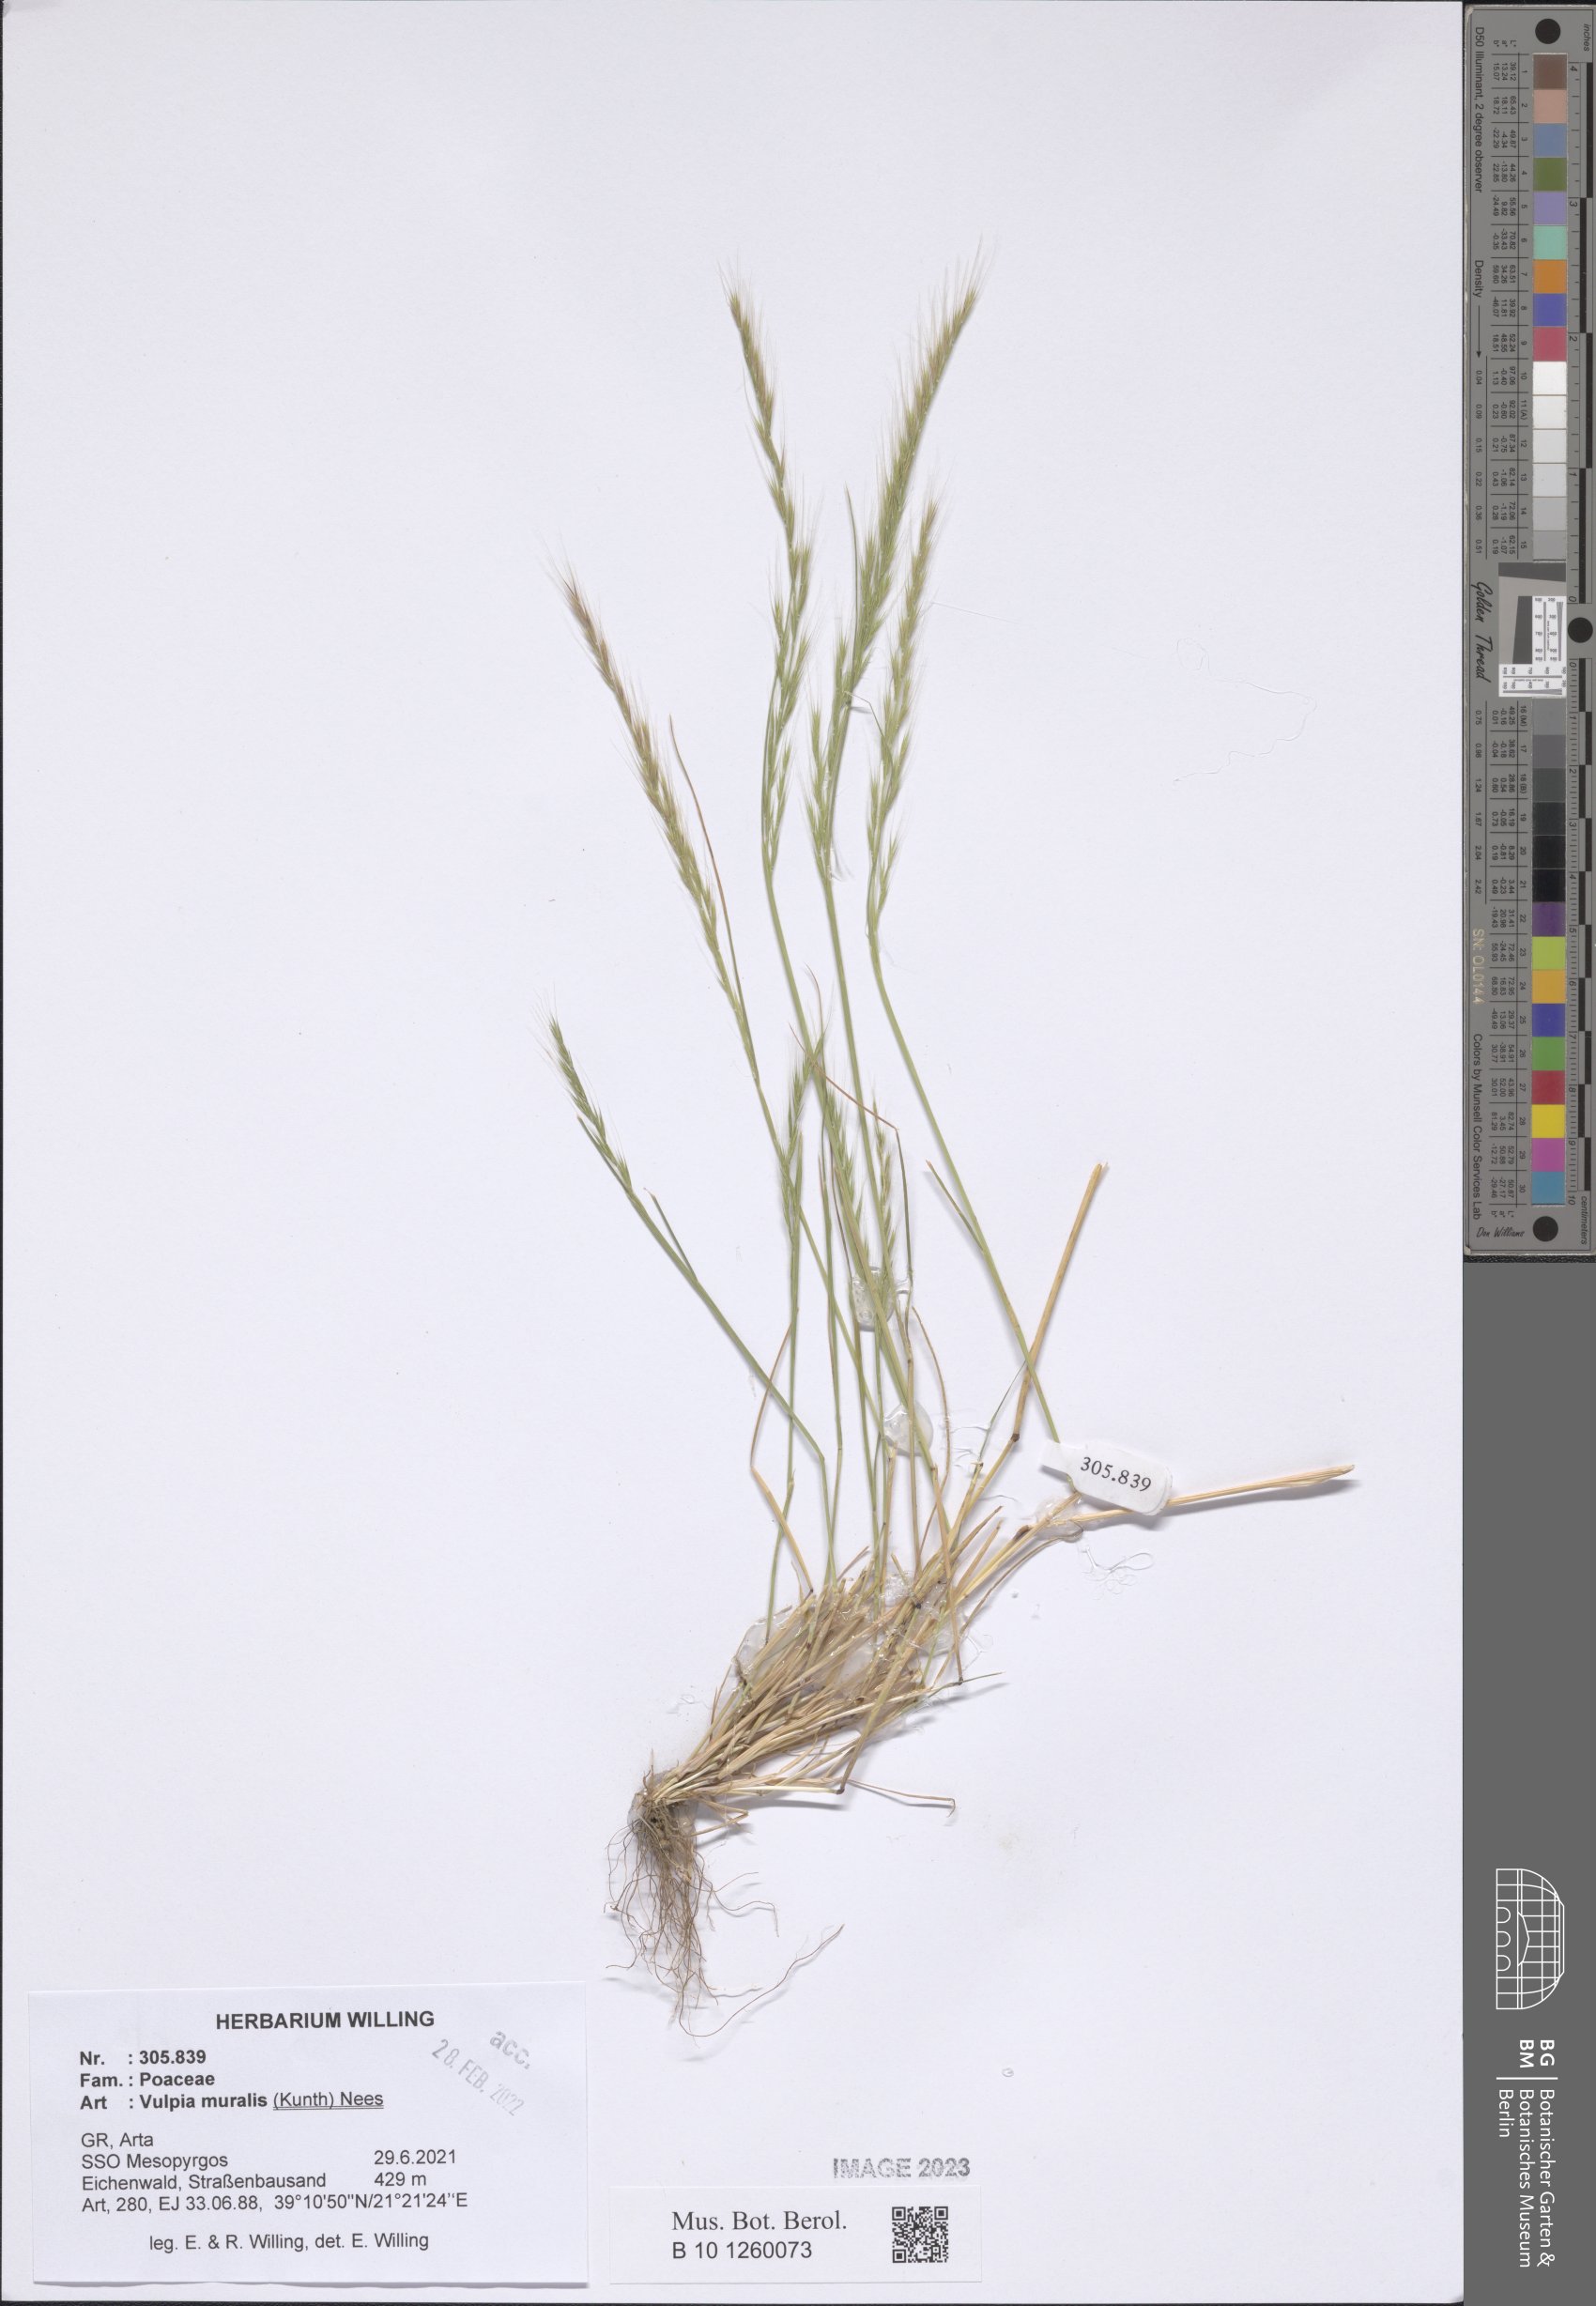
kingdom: Plantae
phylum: Tracheophyta
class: Liliopsida
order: Poales
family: Poaceae
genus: Festuca
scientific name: Festuca muralis
